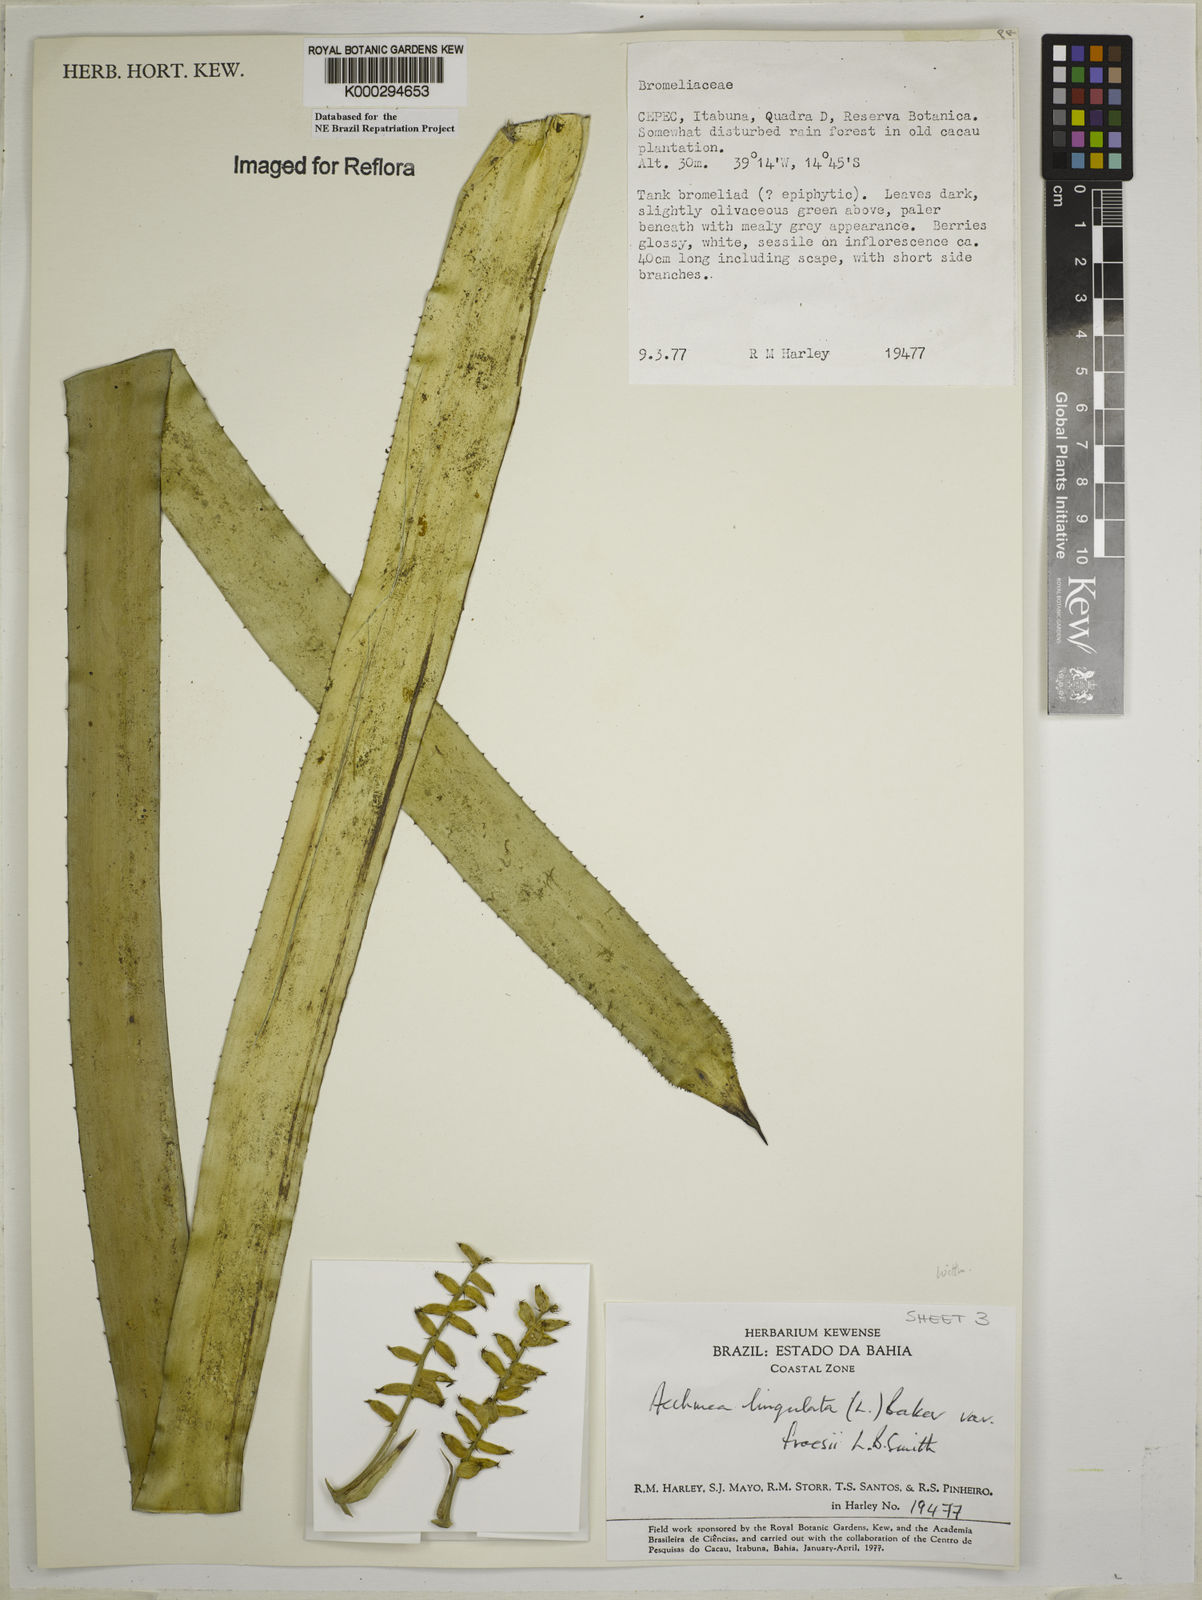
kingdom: Plantae
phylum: Tracheophyta
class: Liliopsida
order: Poales
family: Bromeliaceae
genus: Wittmackia
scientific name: Wittmackia froesii
